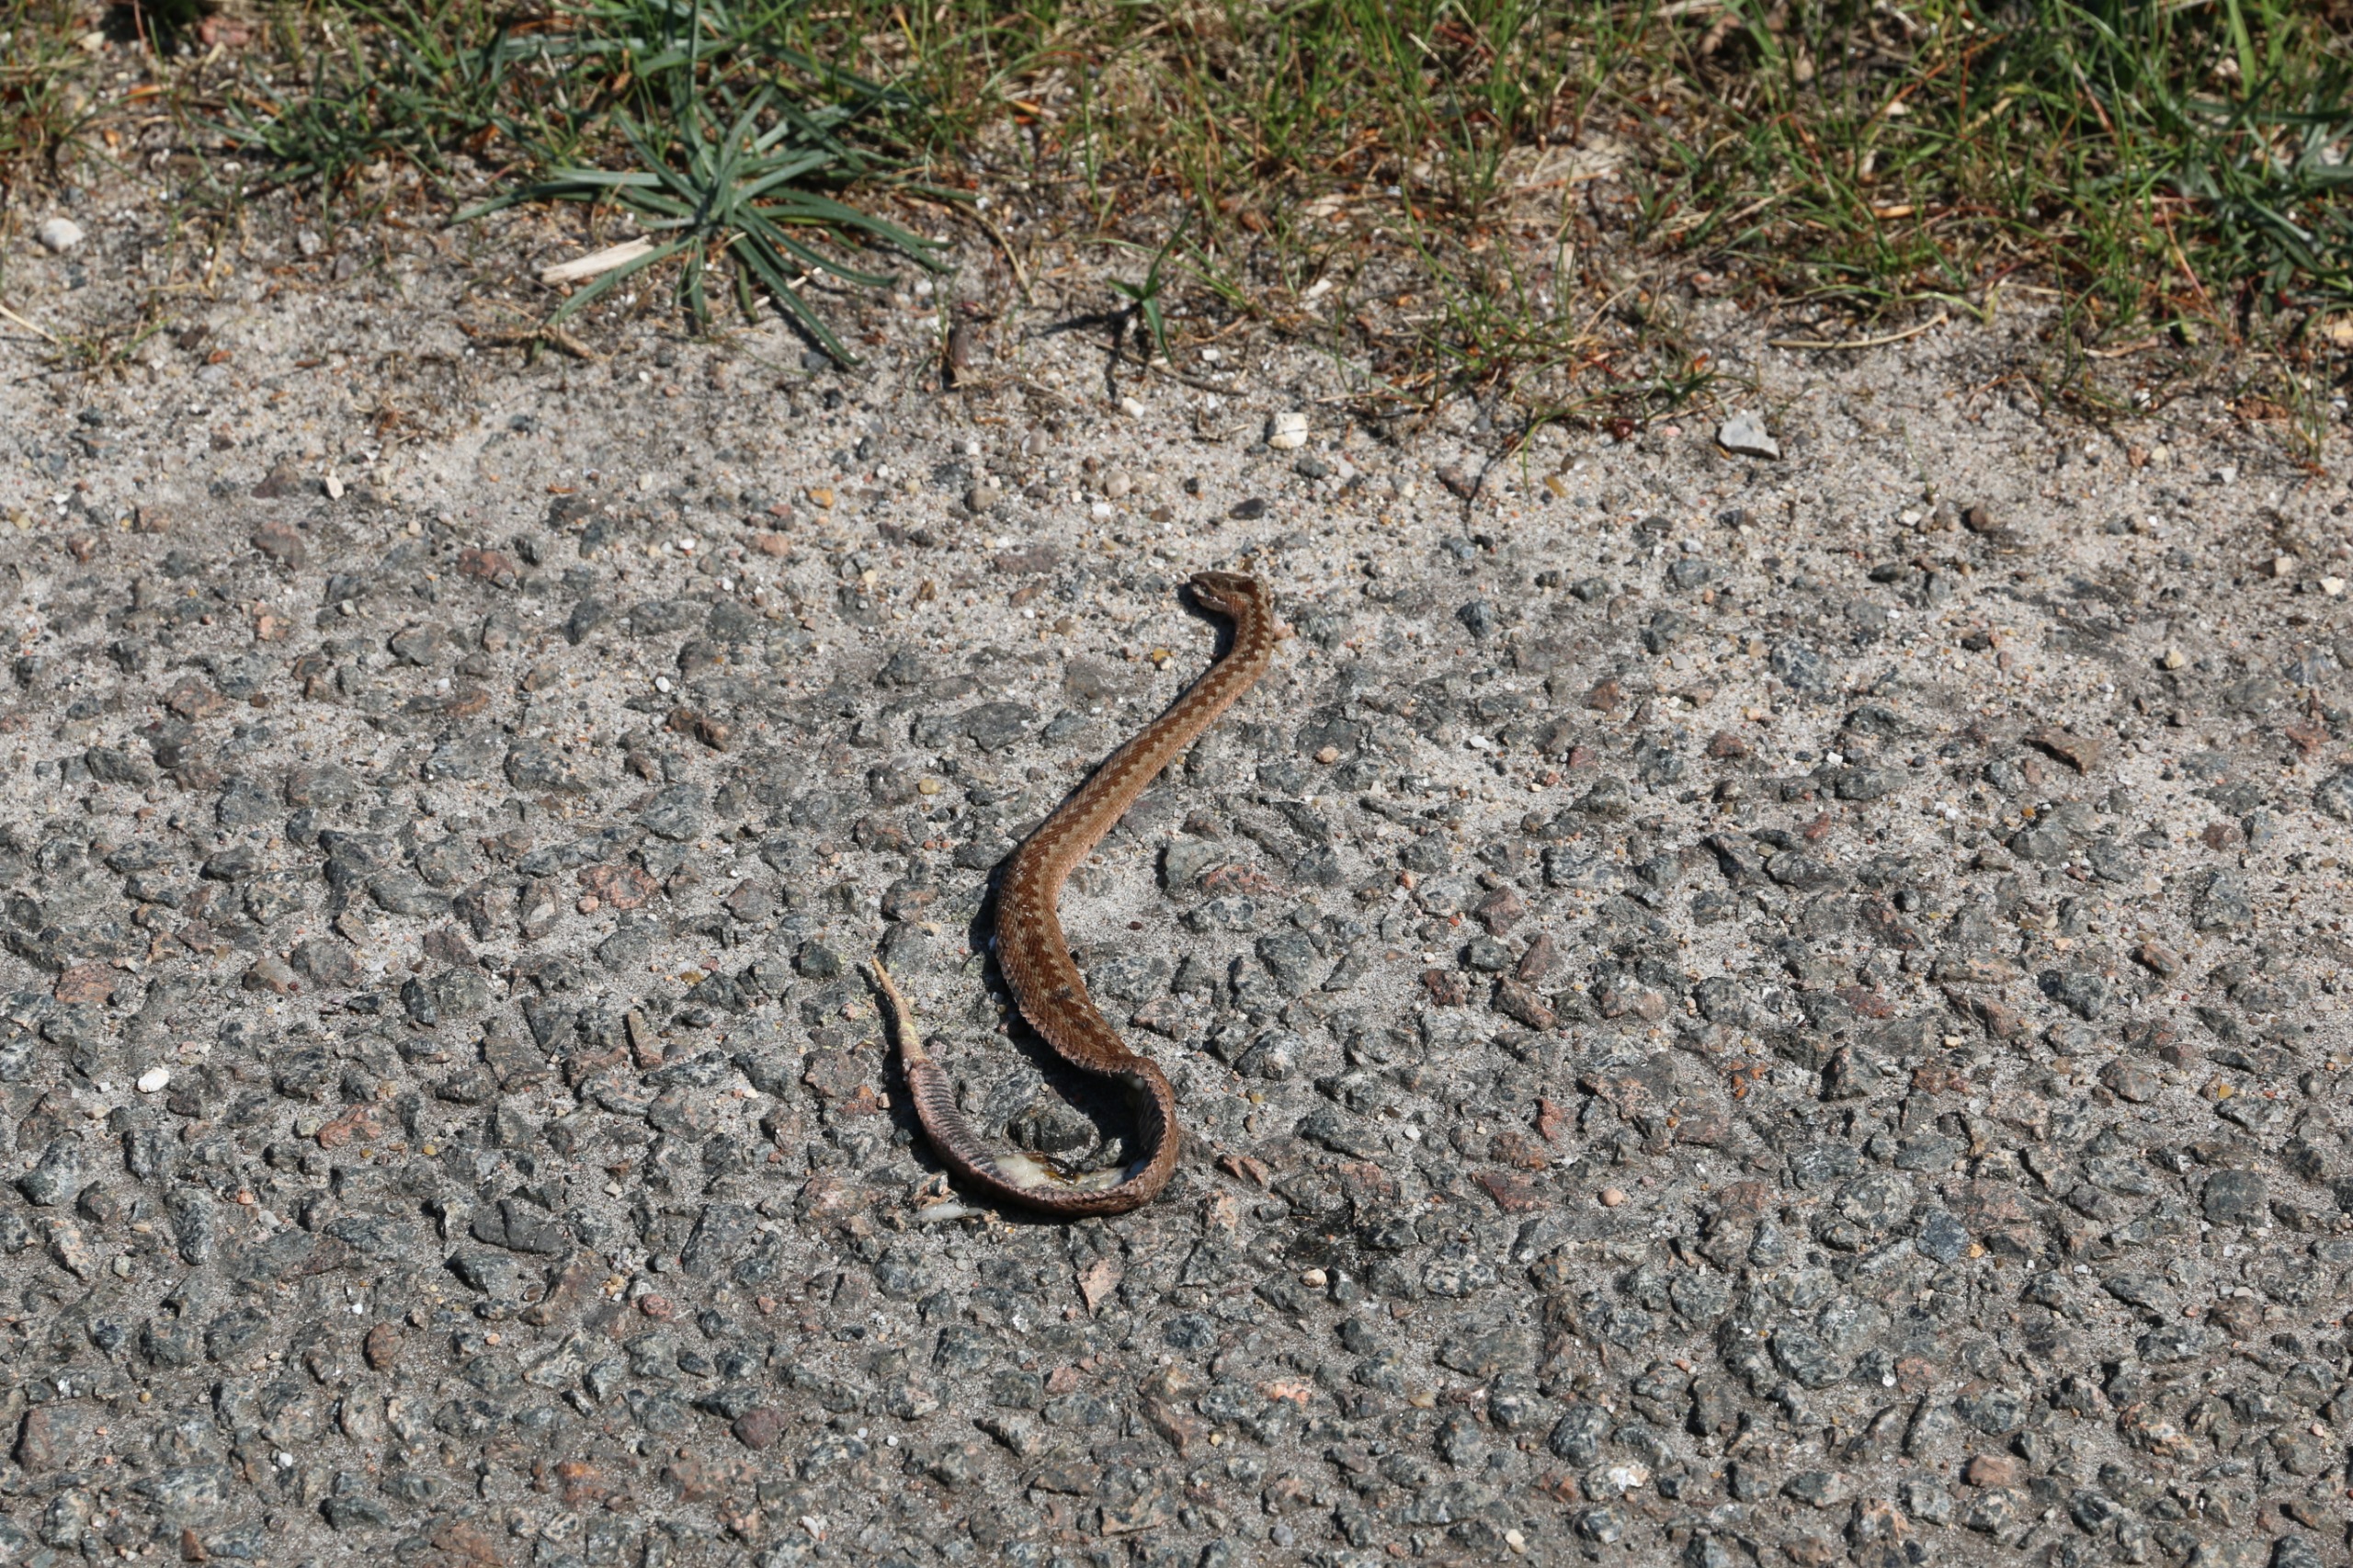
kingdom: Animalia
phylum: Chordata
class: Squamata
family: Viperidae
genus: Vipera
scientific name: Vipera berus
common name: Hugorm
